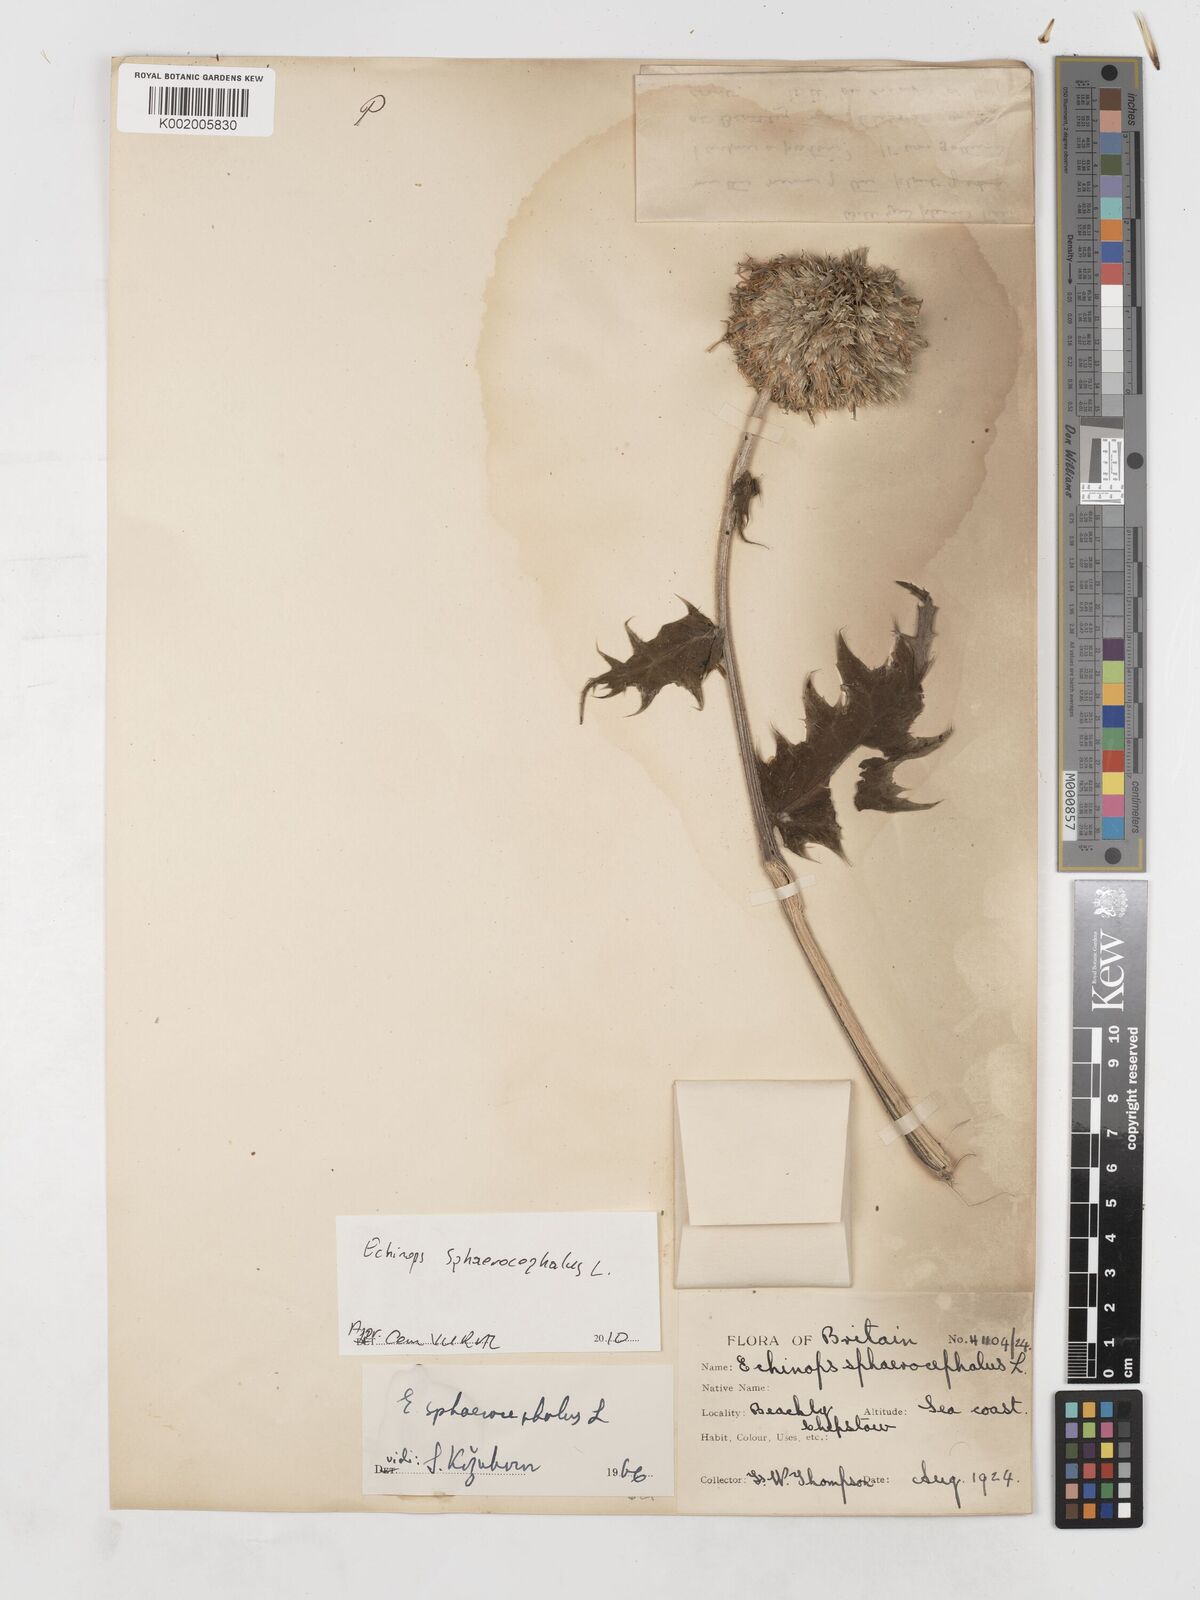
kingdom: Plantae
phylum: Tracheophyta
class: Magnoliopsida
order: Asterales
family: Asteraceae
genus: Echinops
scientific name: Echinops sphaerocephalus
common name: Glandular globe-thistle
